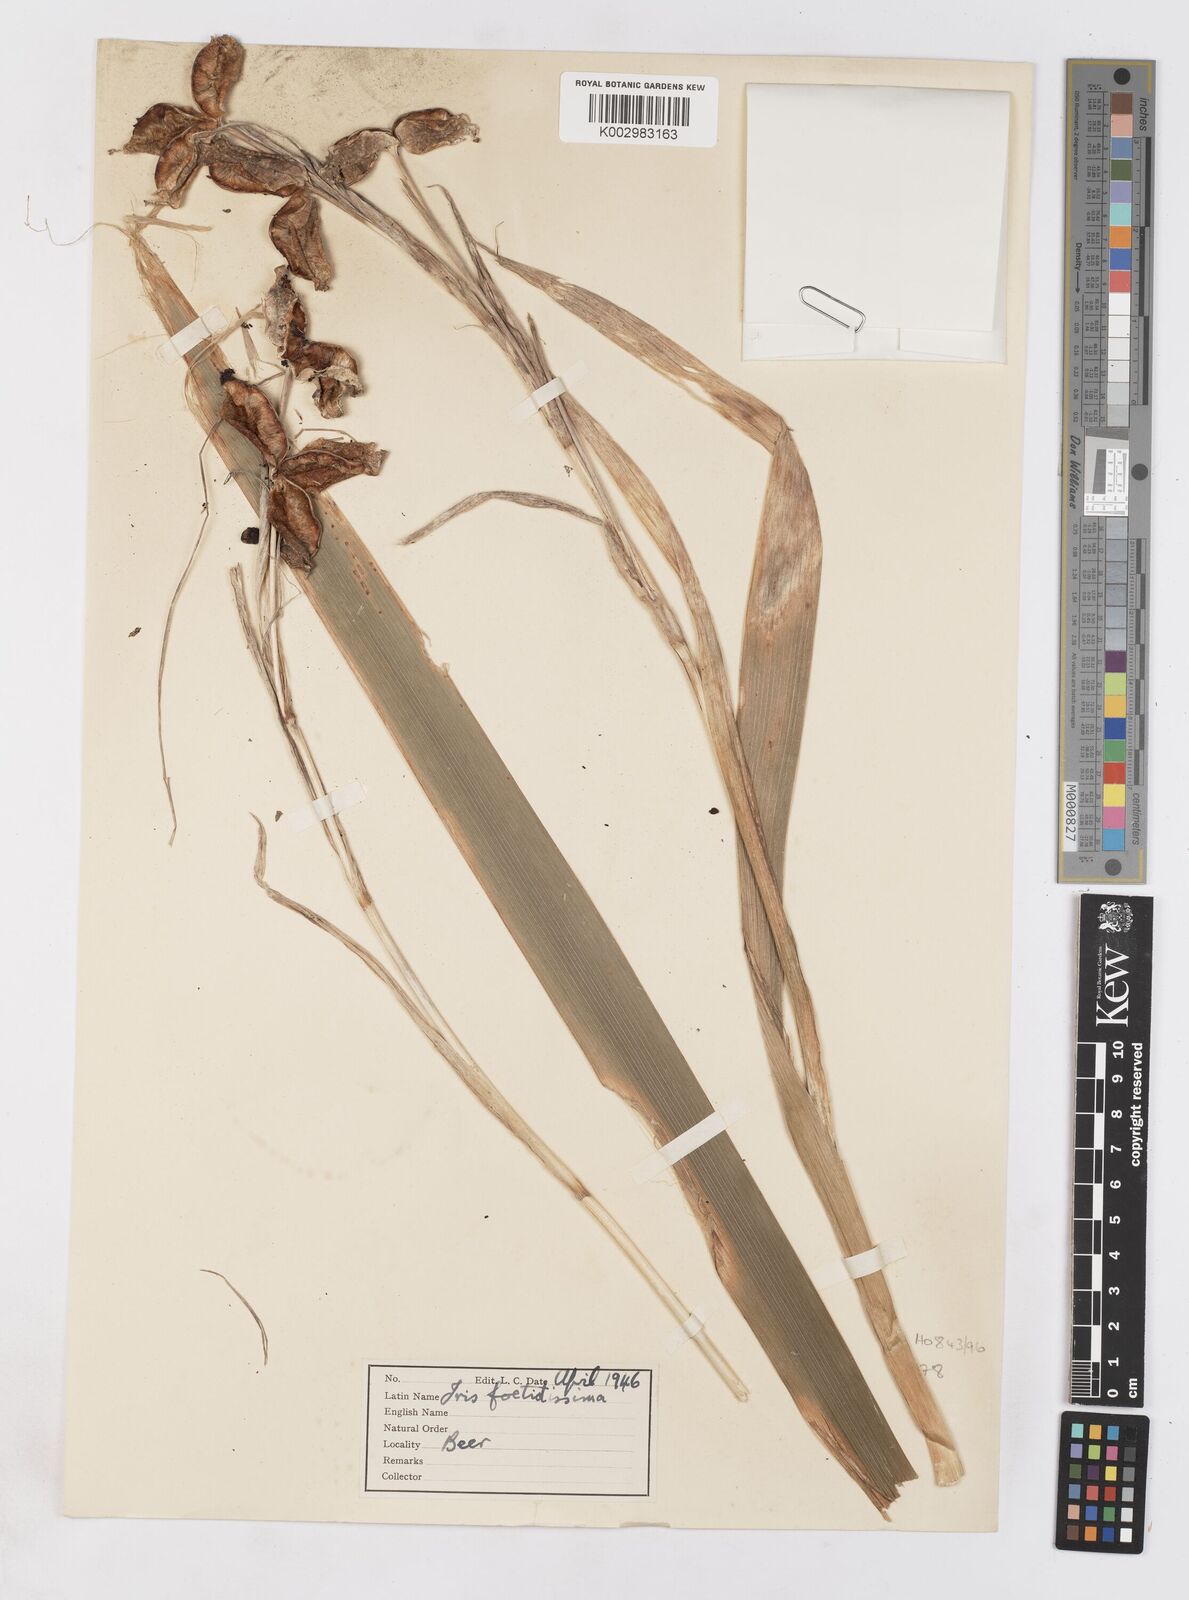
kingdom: Plantae
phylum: Tracheophyta
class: Liliopsida
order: Asparagales
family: Iridaceae
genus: Iris
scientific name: Iris foetidissima
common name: Stinking iris
